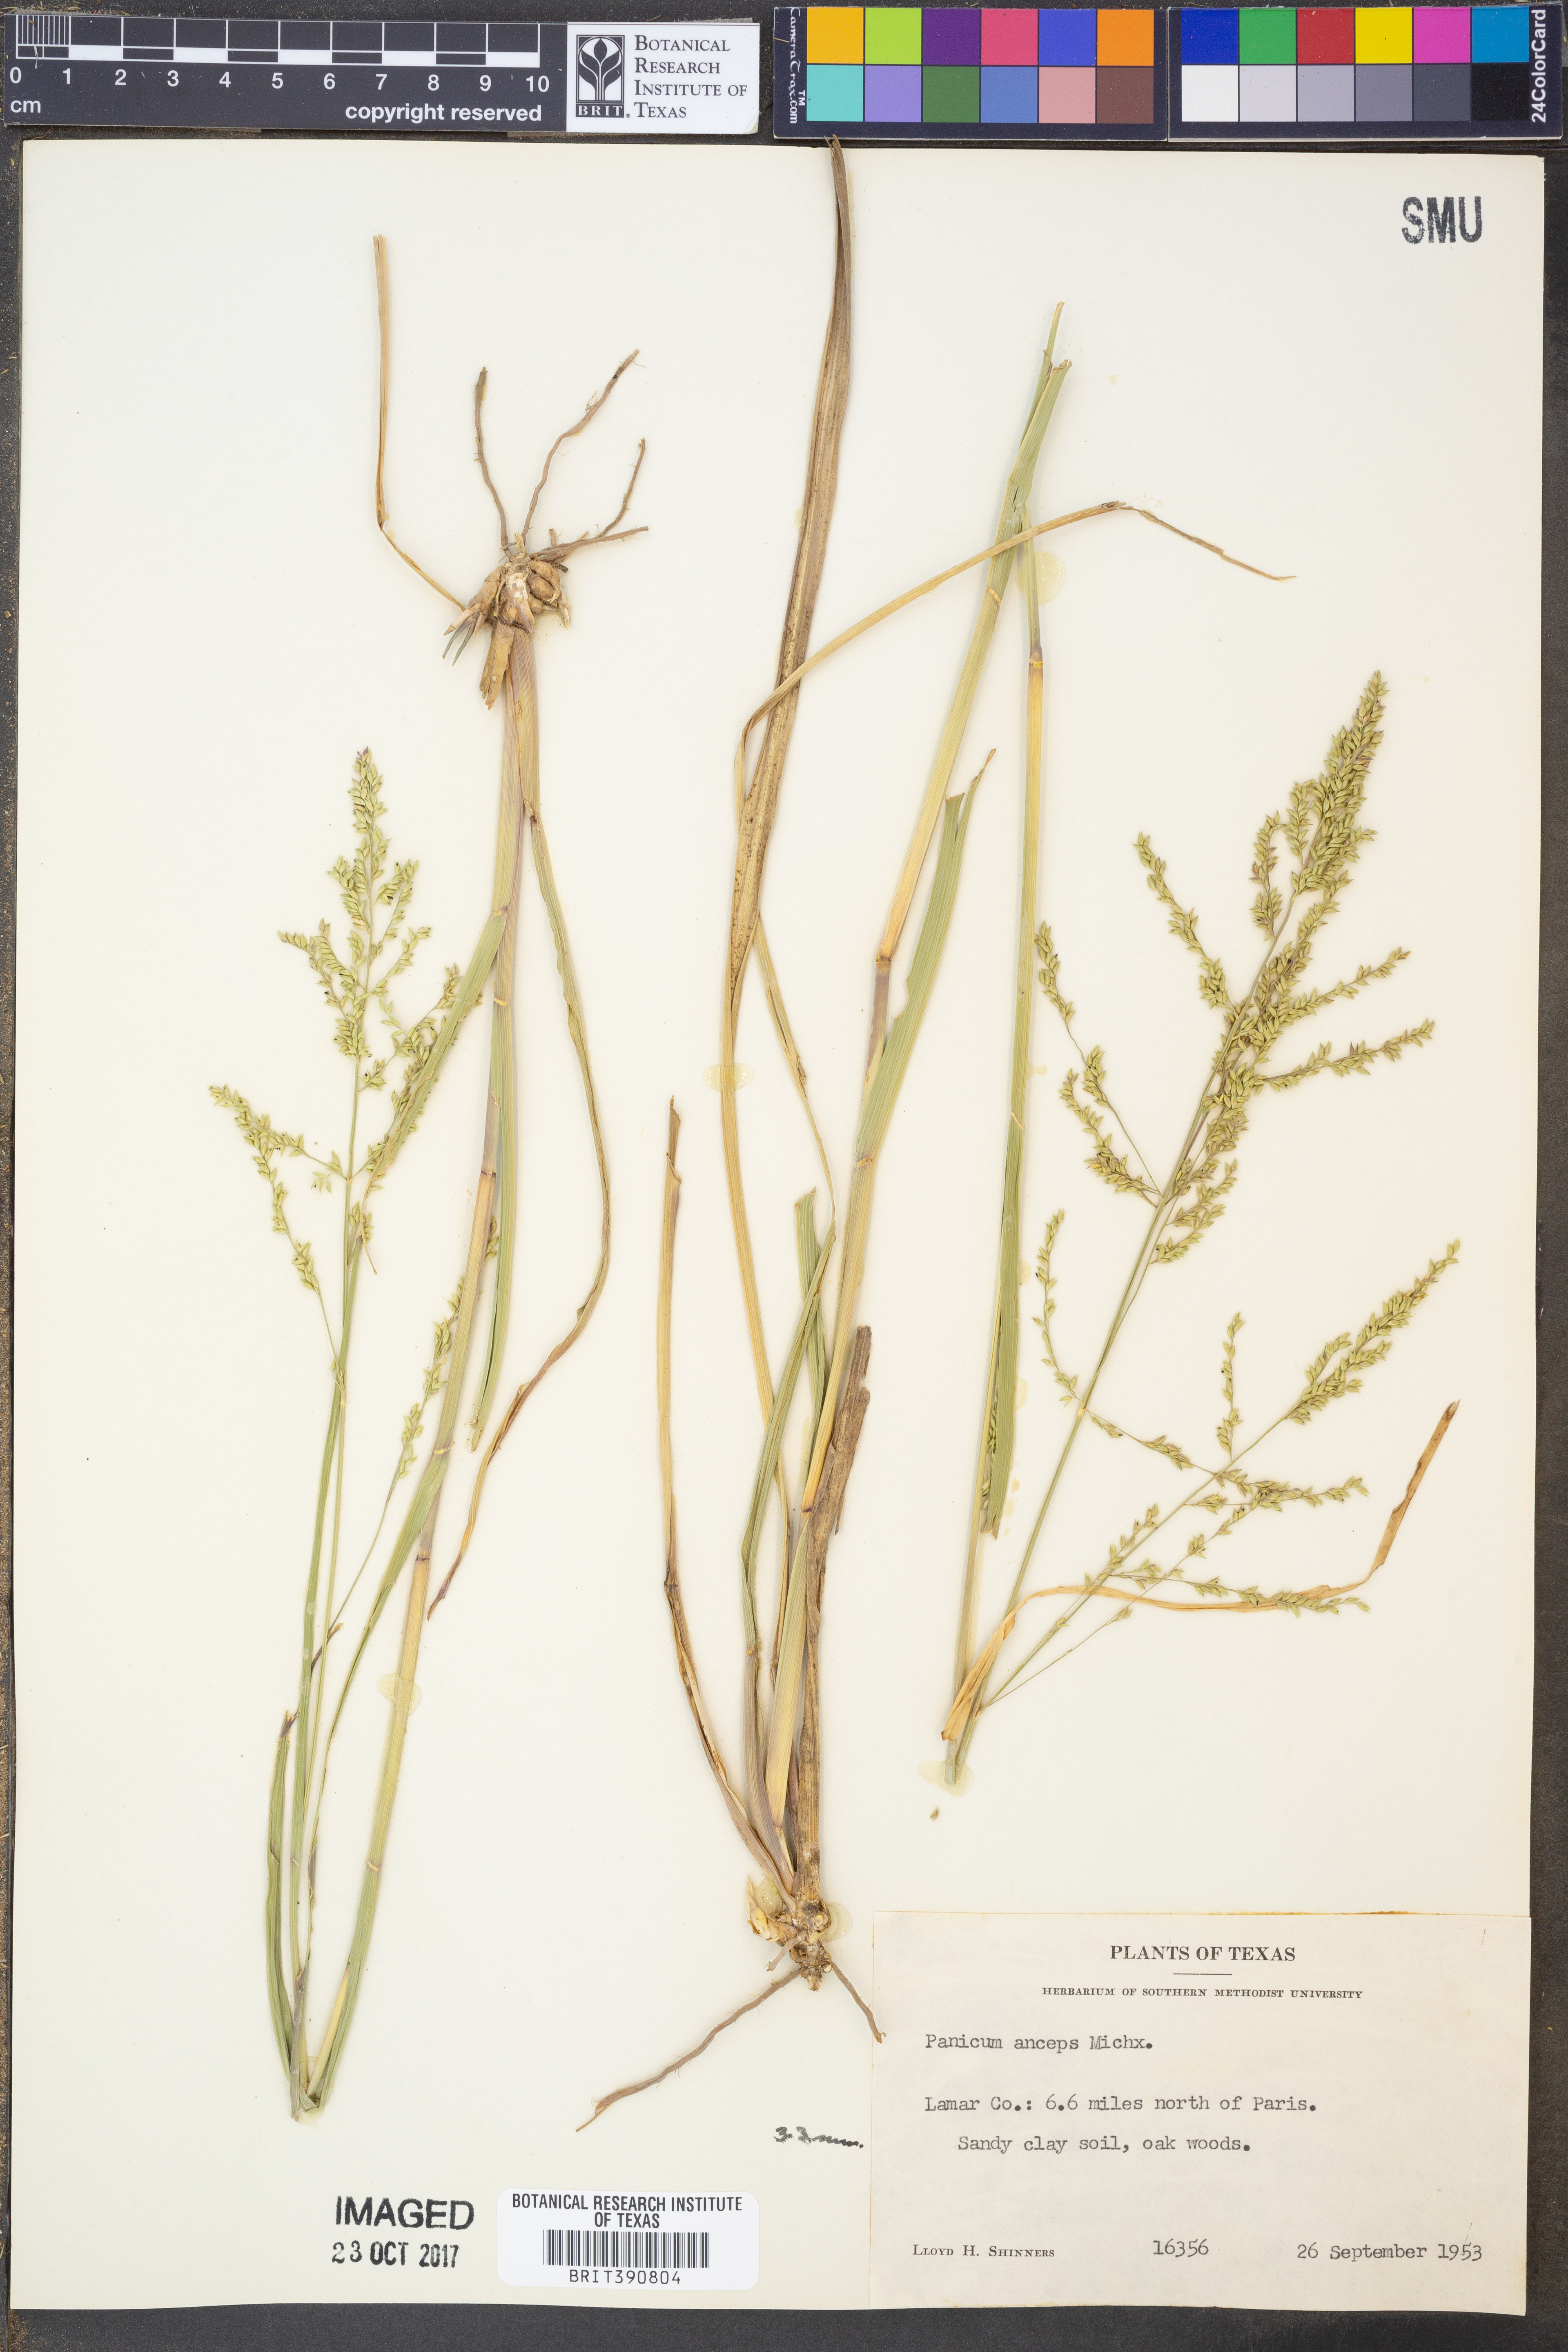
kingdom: Plantae
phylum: Tracheophyta
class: Liliopsida
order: Poales
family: Poaceae
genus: Coleataenia
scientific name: Coleataenia anceps
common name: Beaked panic grass
